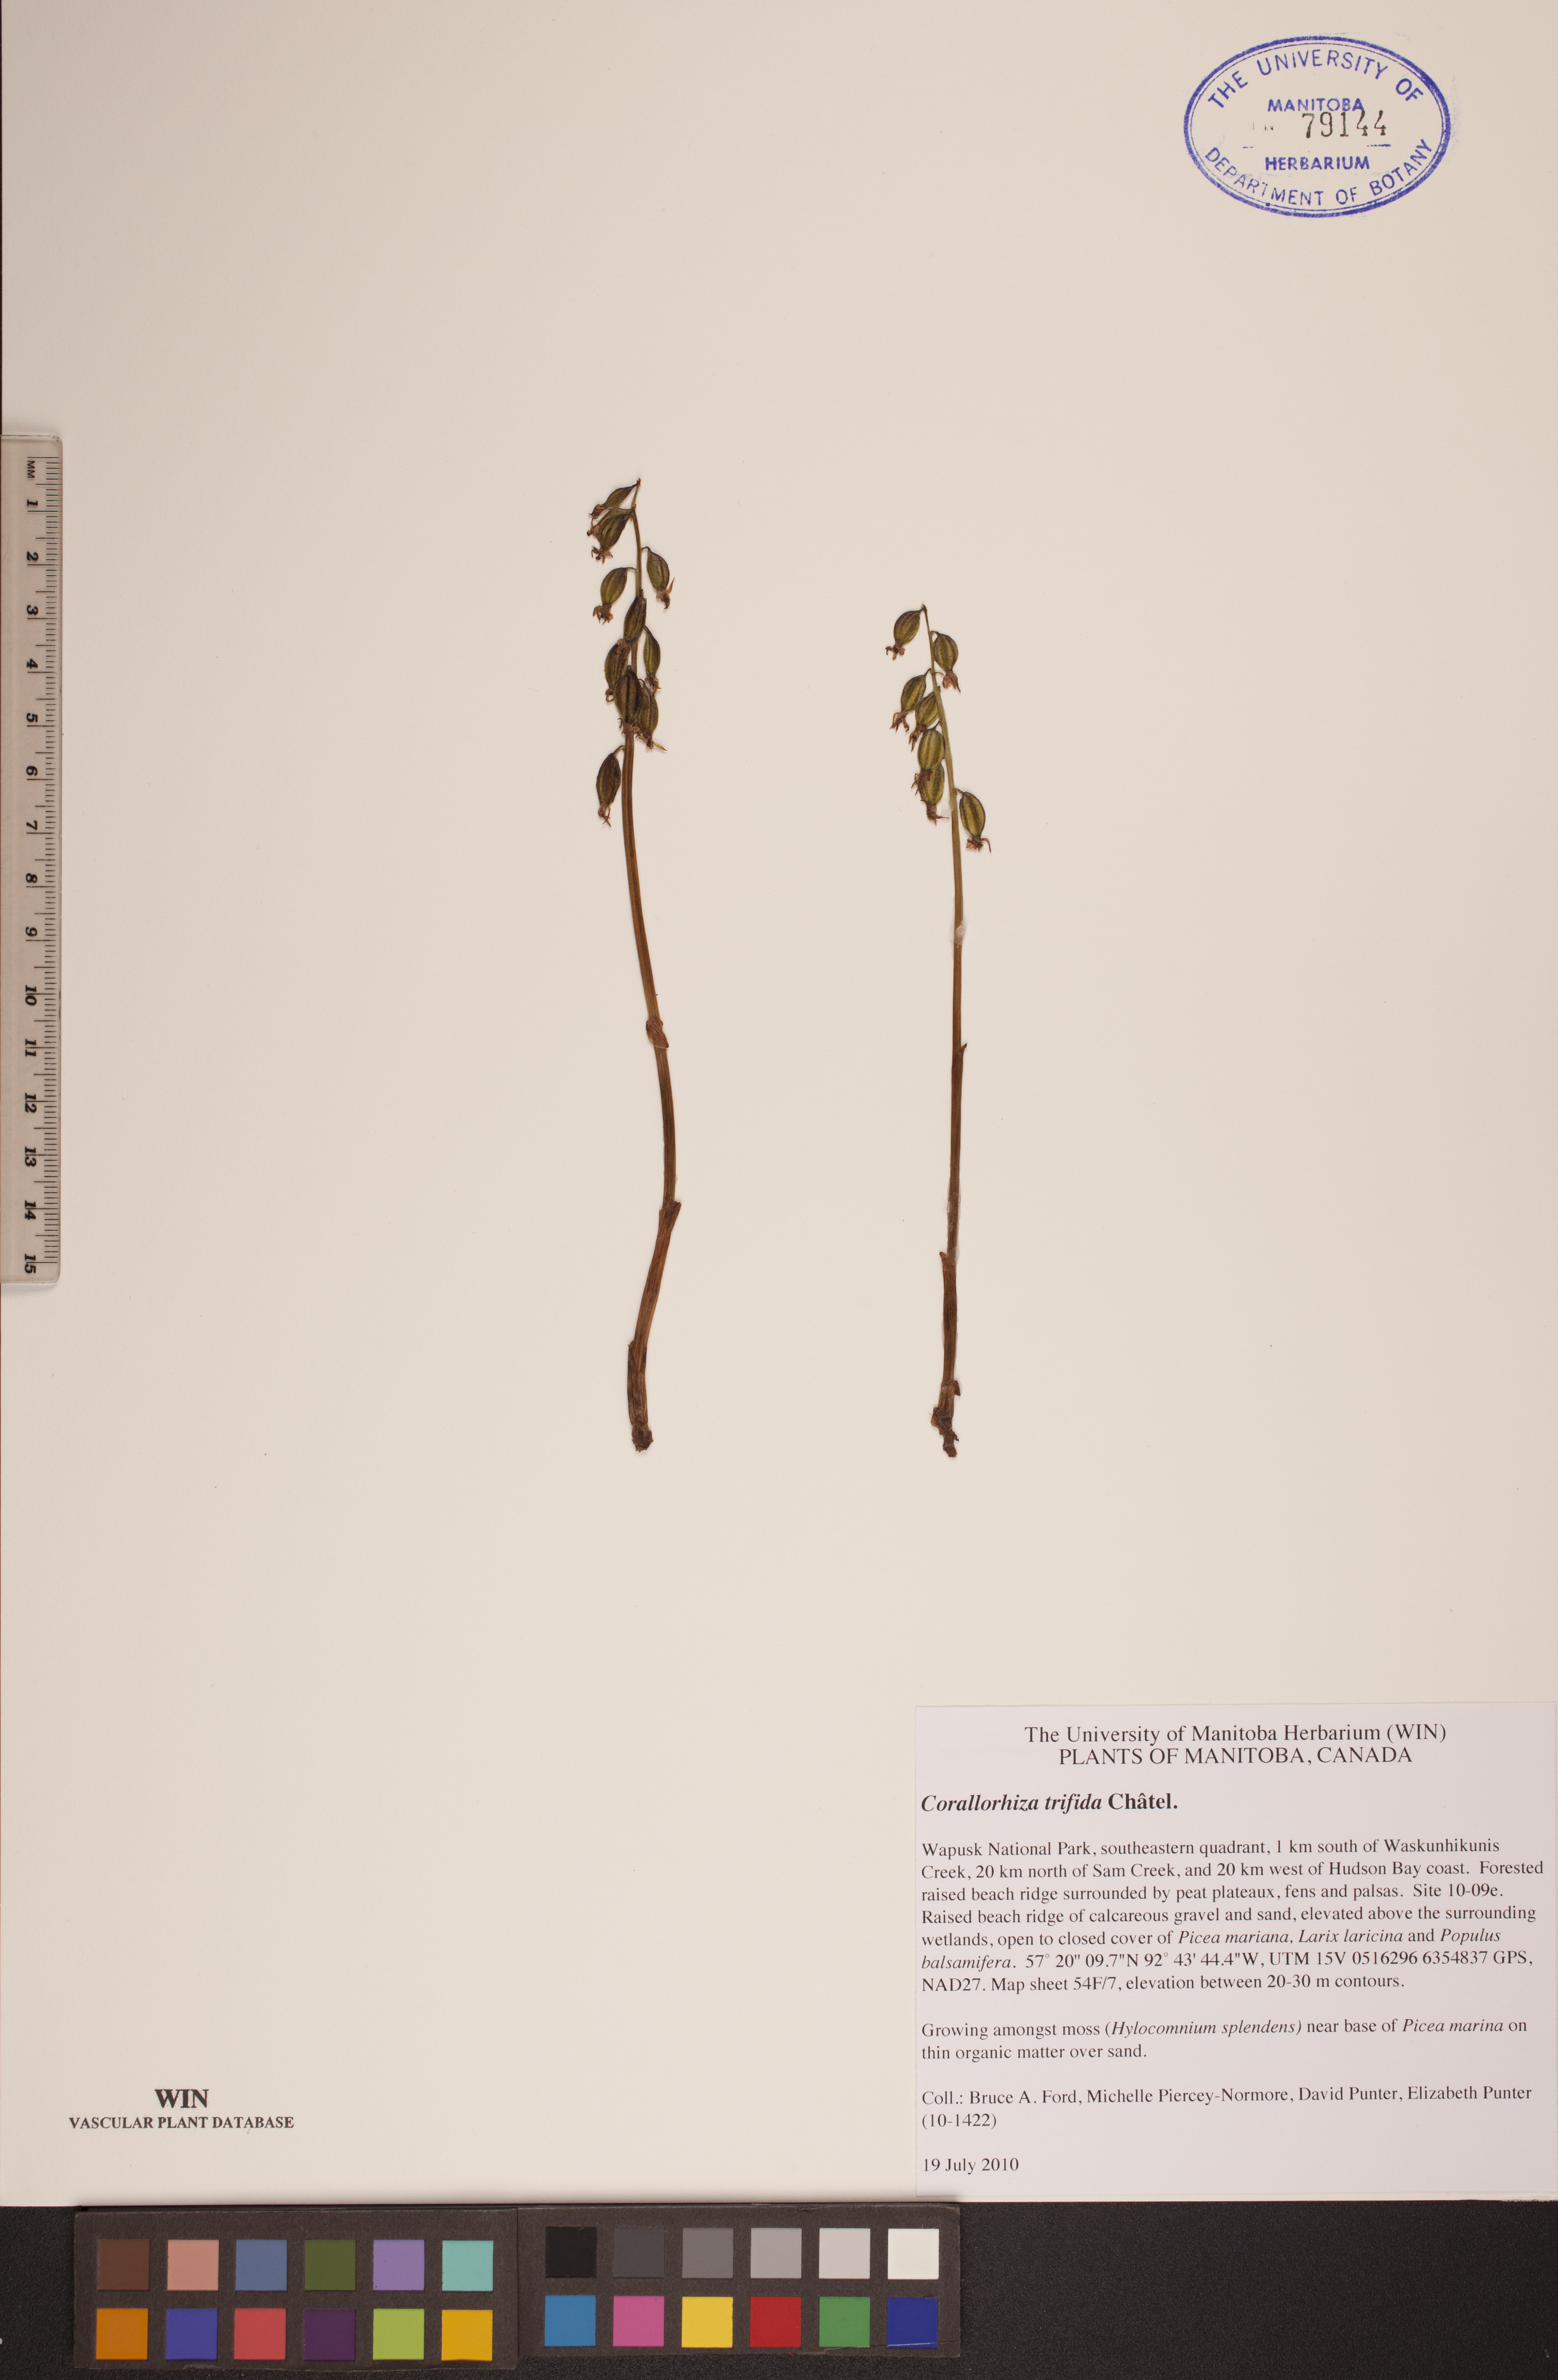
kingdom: Plantae
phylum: Tracheophyta
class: Liliopsida
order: Asparagales
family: Orchidaceae
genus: Corallorhiza
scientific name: Corallorhiza trifida
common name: Yellow coralroot
